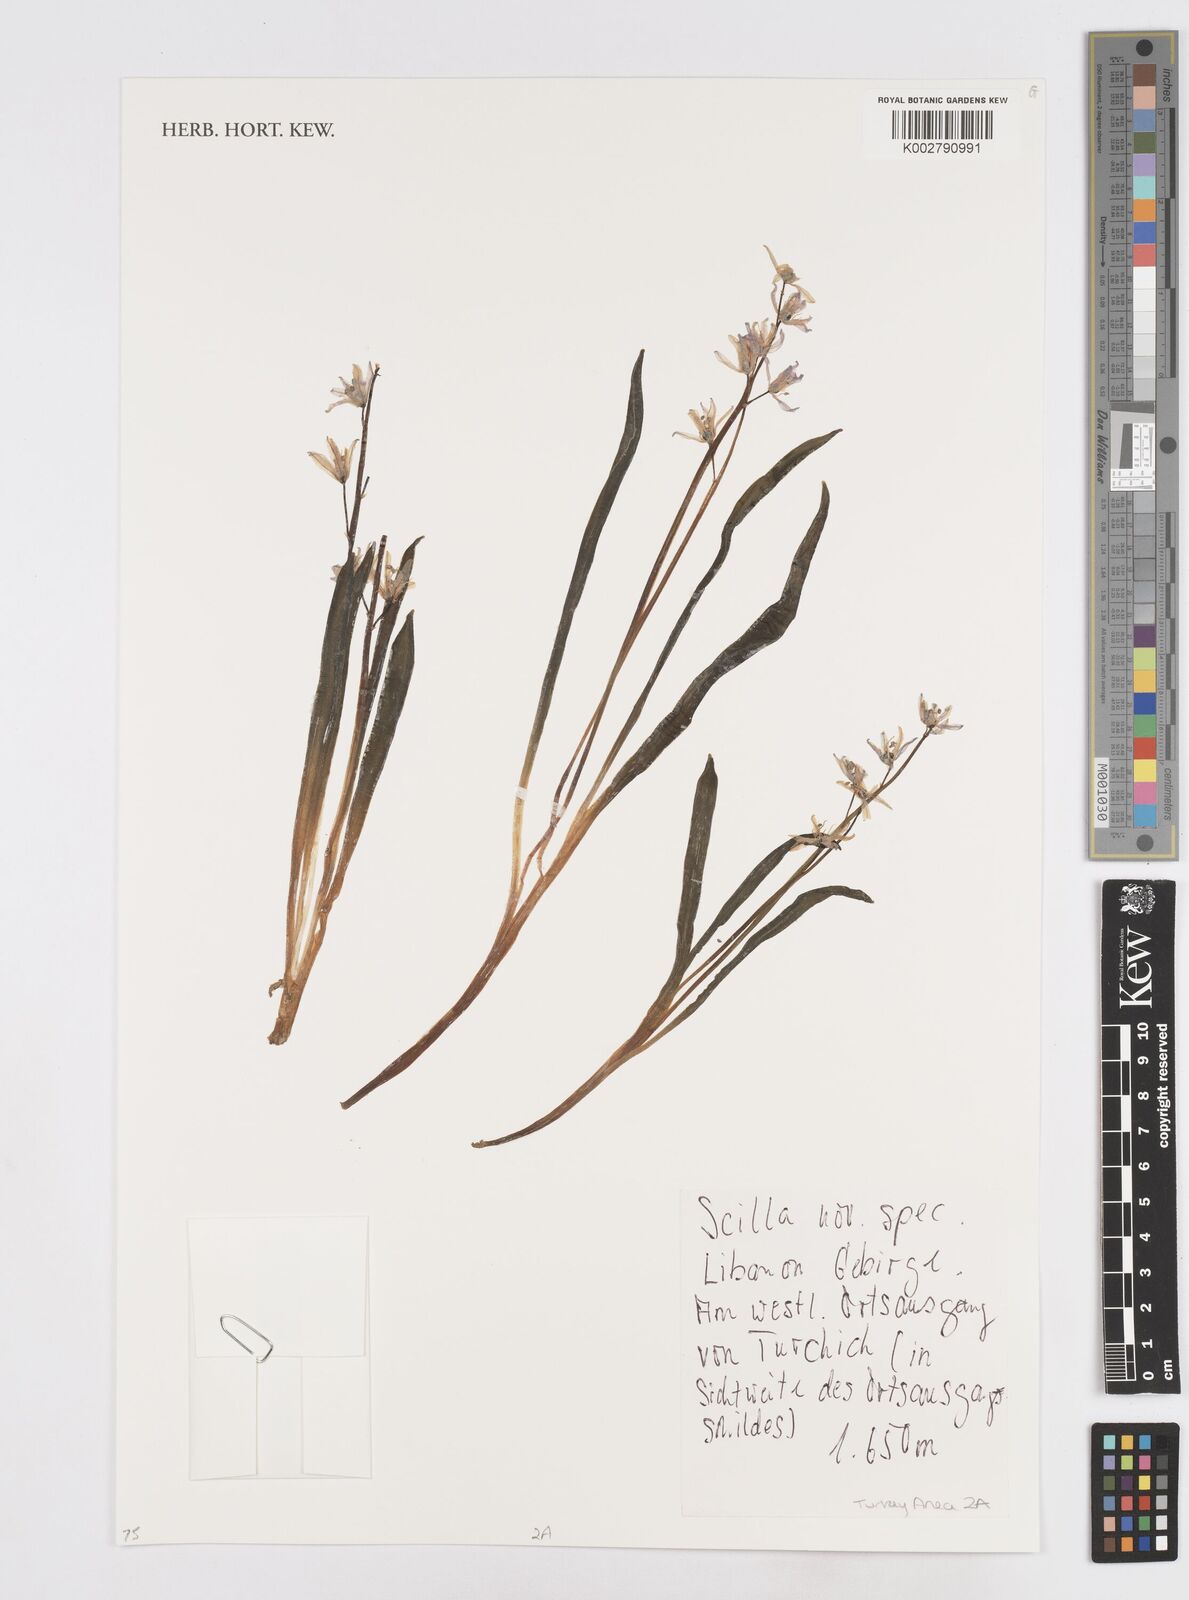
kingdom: Plantae
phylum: Tracheophyta
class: Liliopsida
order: Asparagales
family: Asparagaceae
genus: Scilla
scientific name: Scilla
